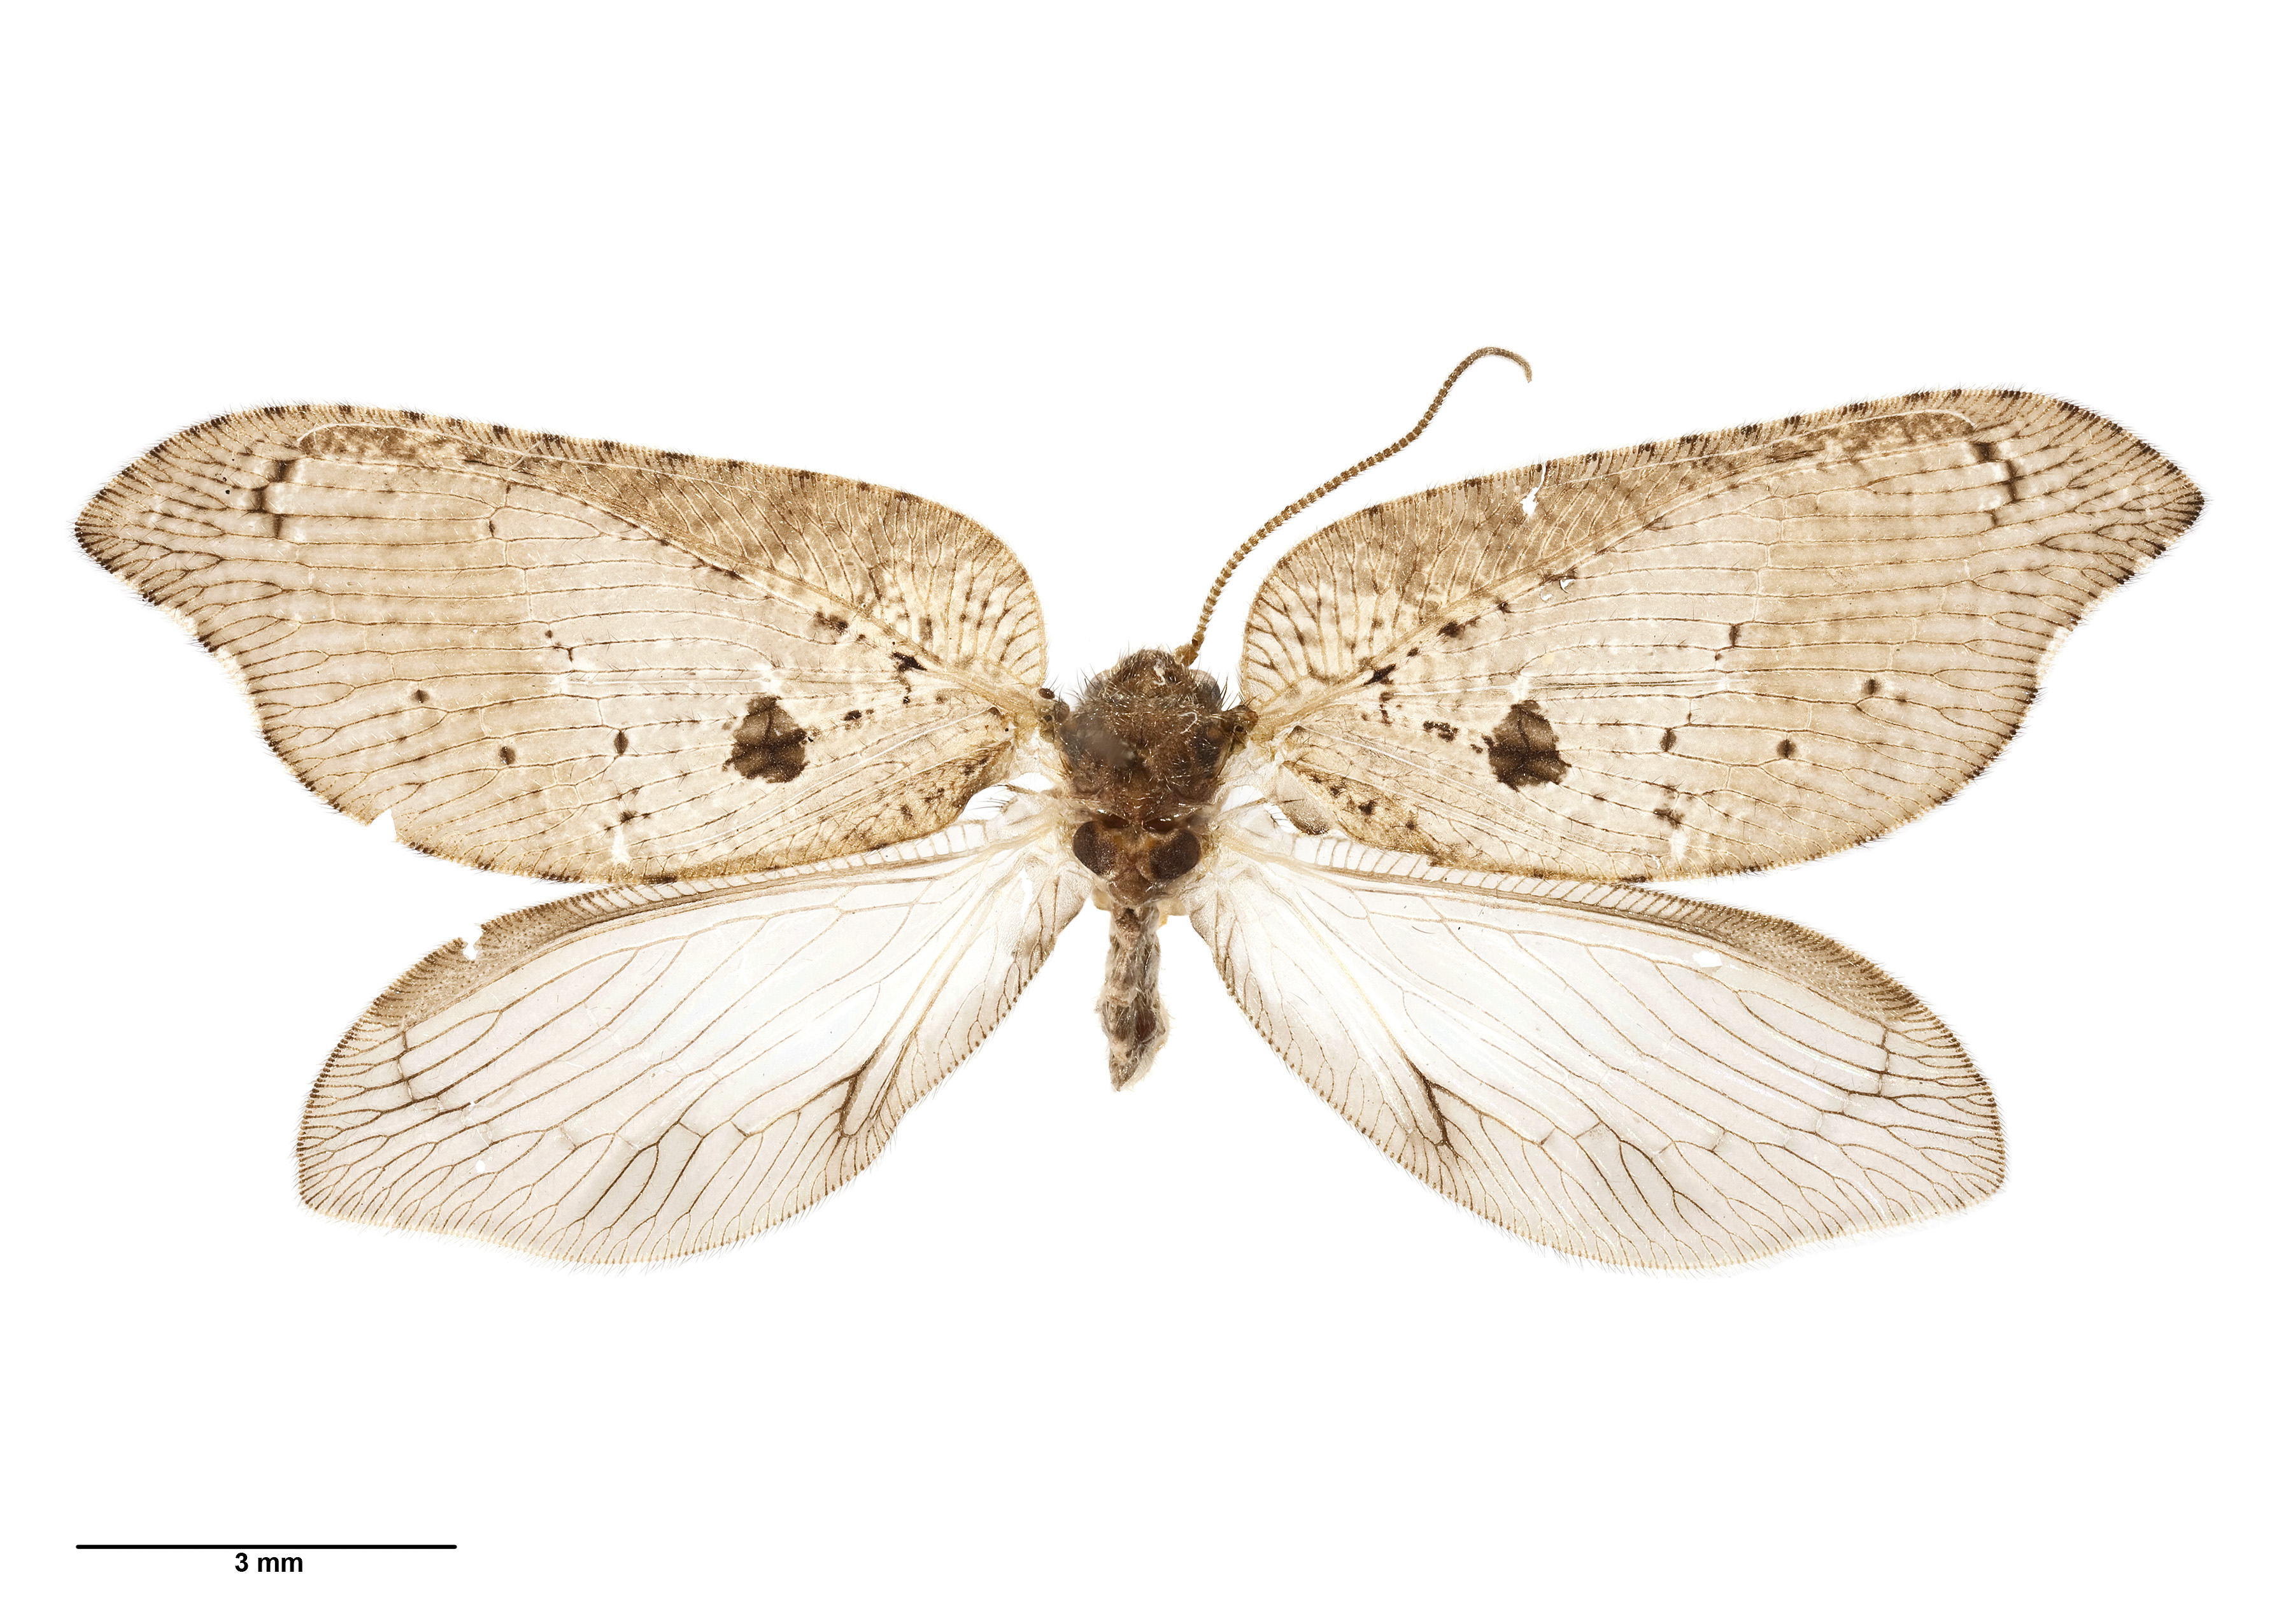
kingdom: Animalia
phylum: Arthropoda
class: Insecta
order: Neuroptera
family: Hemerobiidae
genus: Drepanacra
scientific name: Drepanacra binocula
